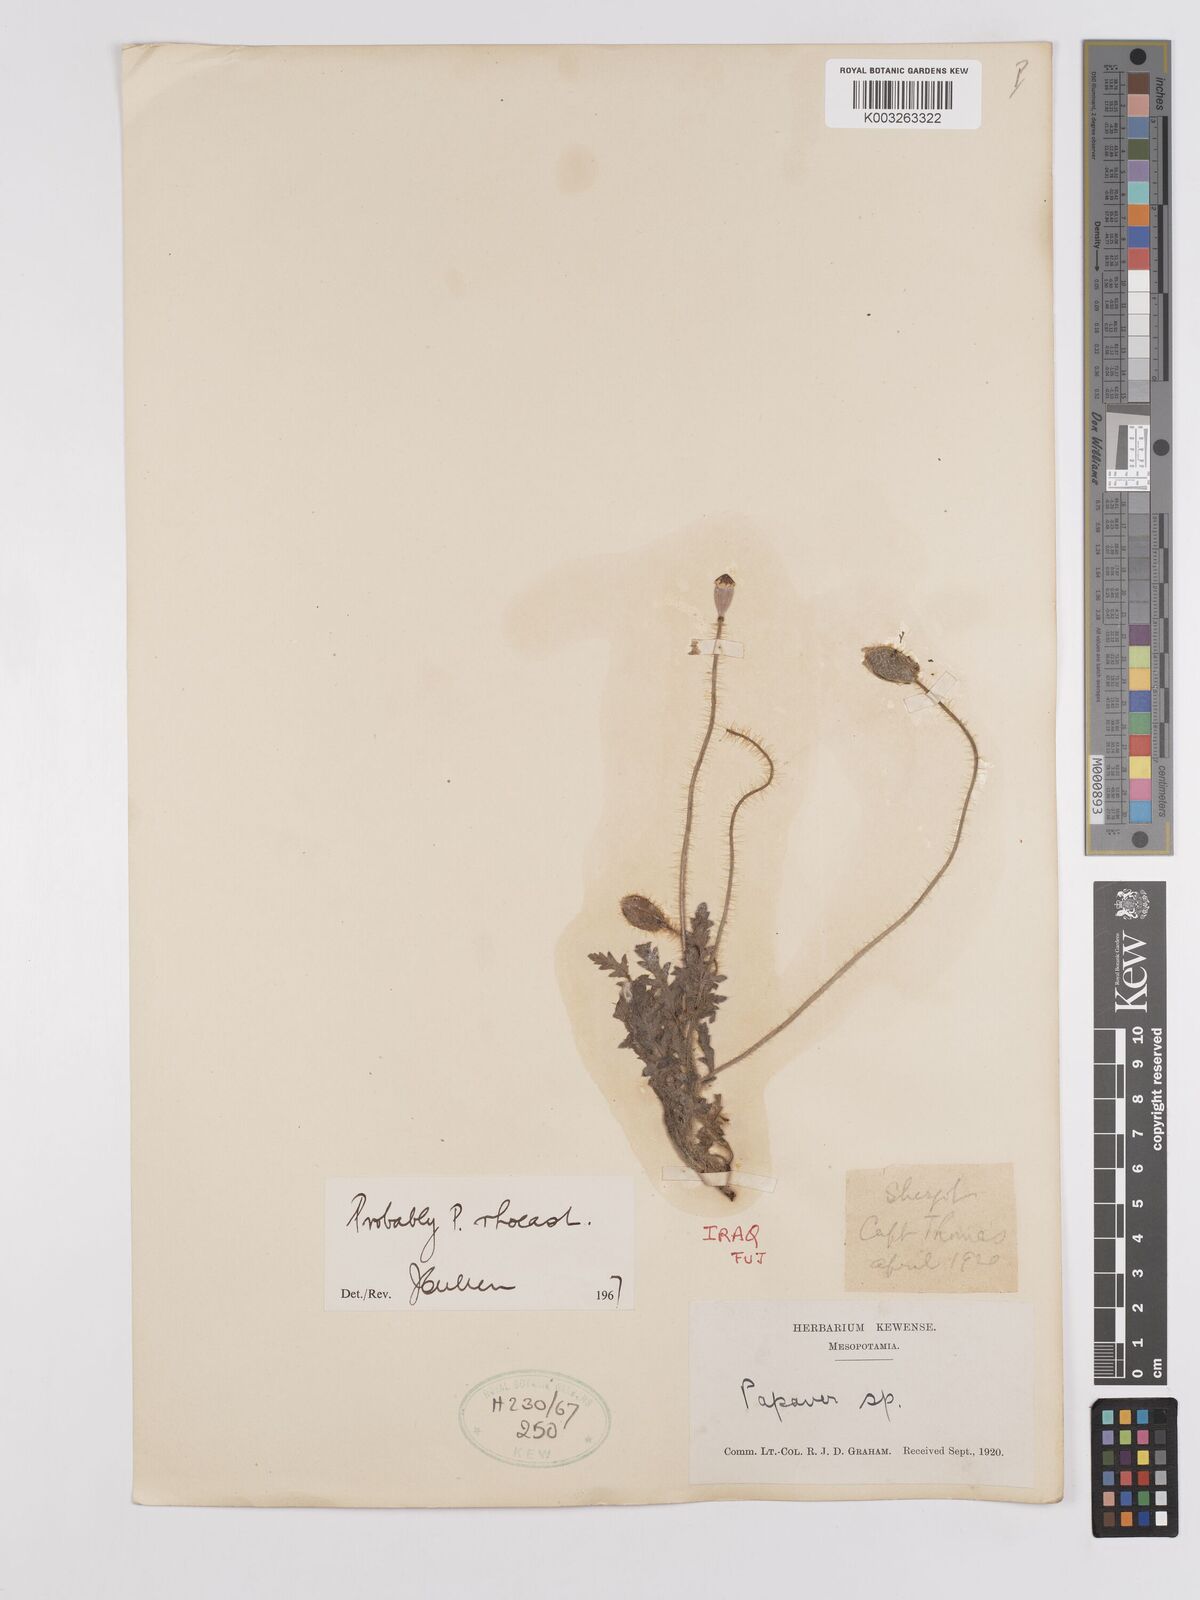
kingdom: Plantae
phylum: Tracheophyta
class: Magnoliopsida
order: Ranunculales
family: Papaveraceae
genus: Papaver
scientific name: Papaver rhoeas
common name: Corn poppy
